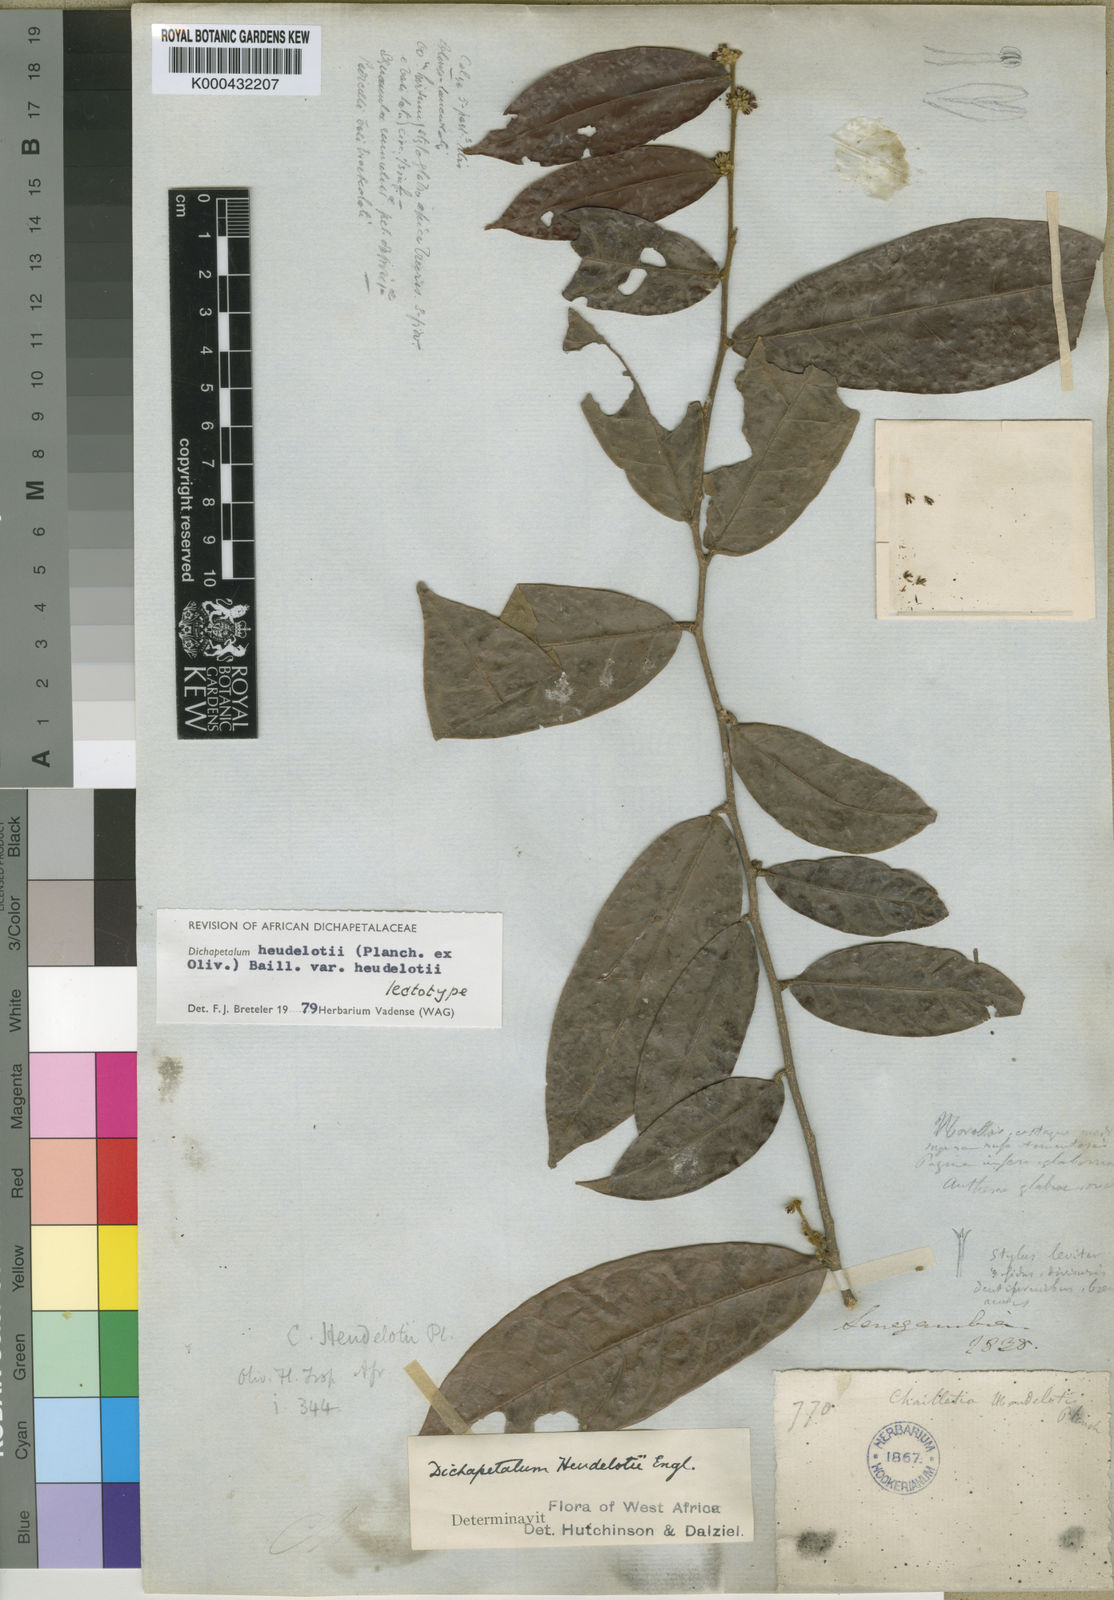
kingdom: Plantae
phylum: Tracheophyta
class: Magnoliopsida
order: Malpighiales
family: Dichapetalaceae
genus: Dichapetalum
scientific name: Dichapetalum heudelotii
